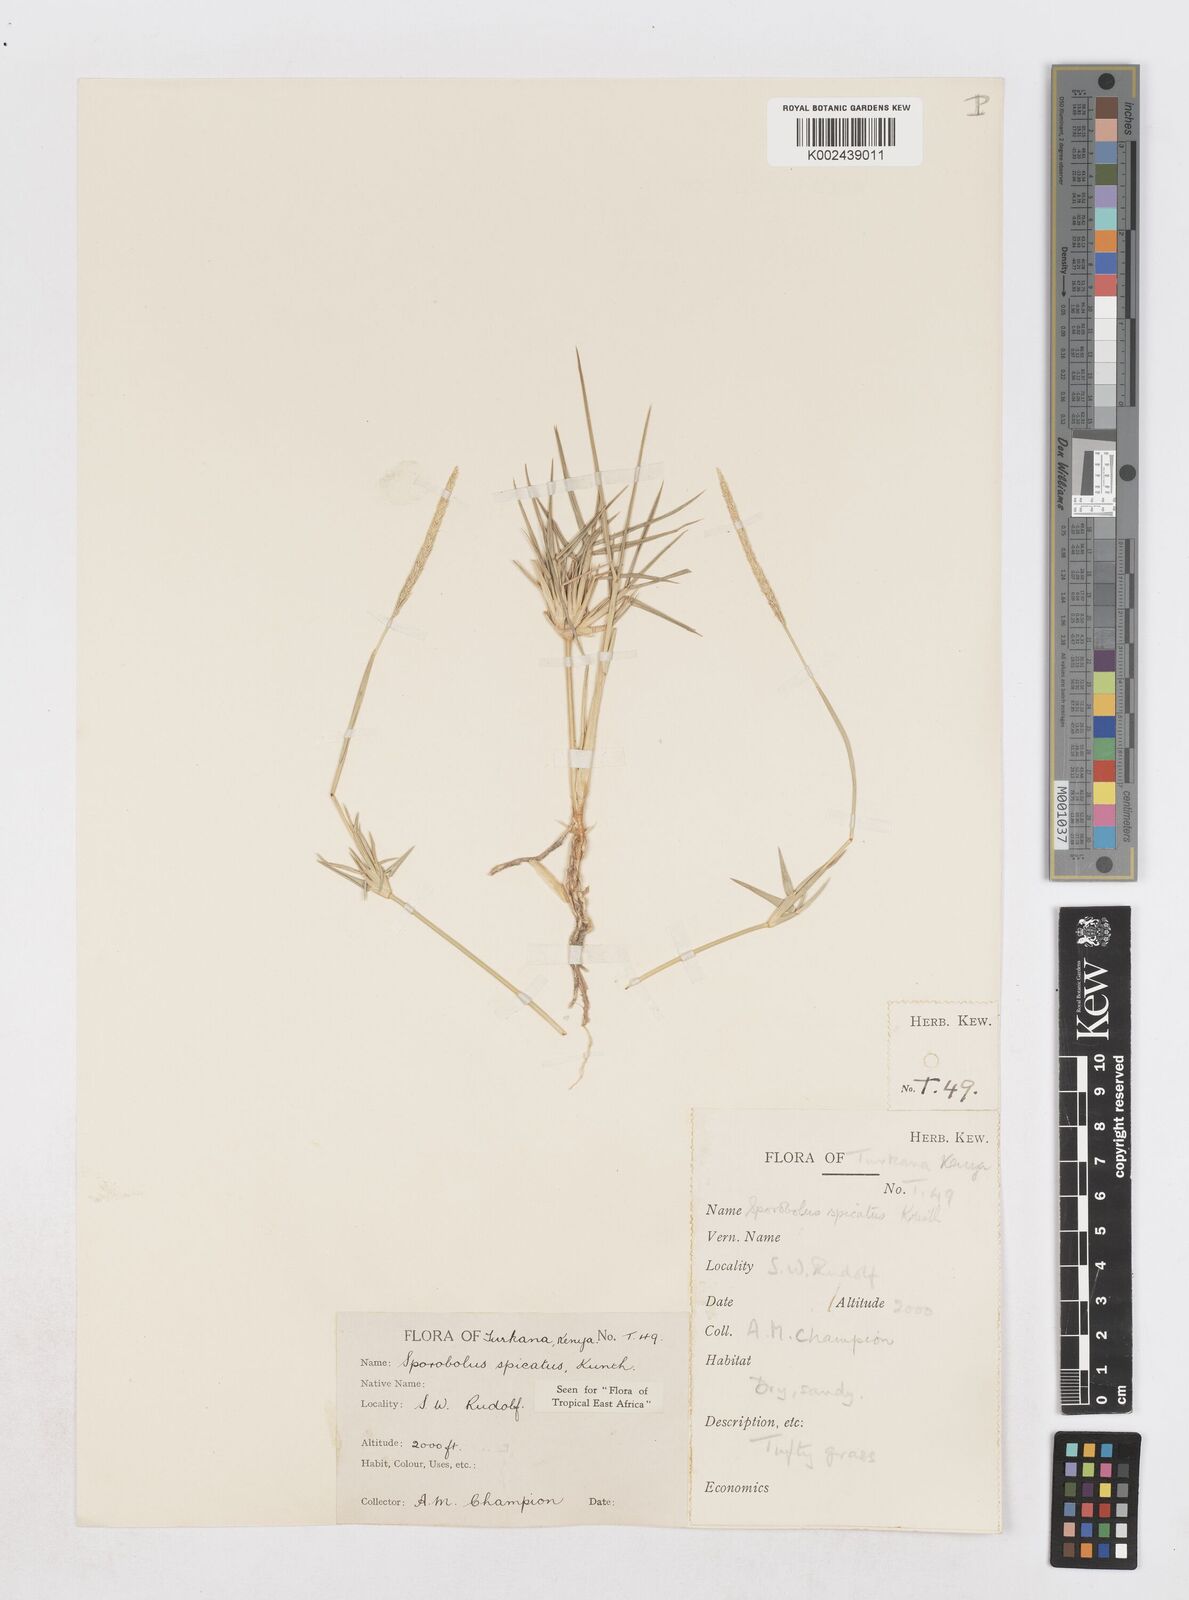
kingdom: Plantae
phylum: Tracheophyta
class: Liliopsida
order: Poales
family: Poaceae
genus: Sporobolus
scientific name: Sporobolus spicatus
